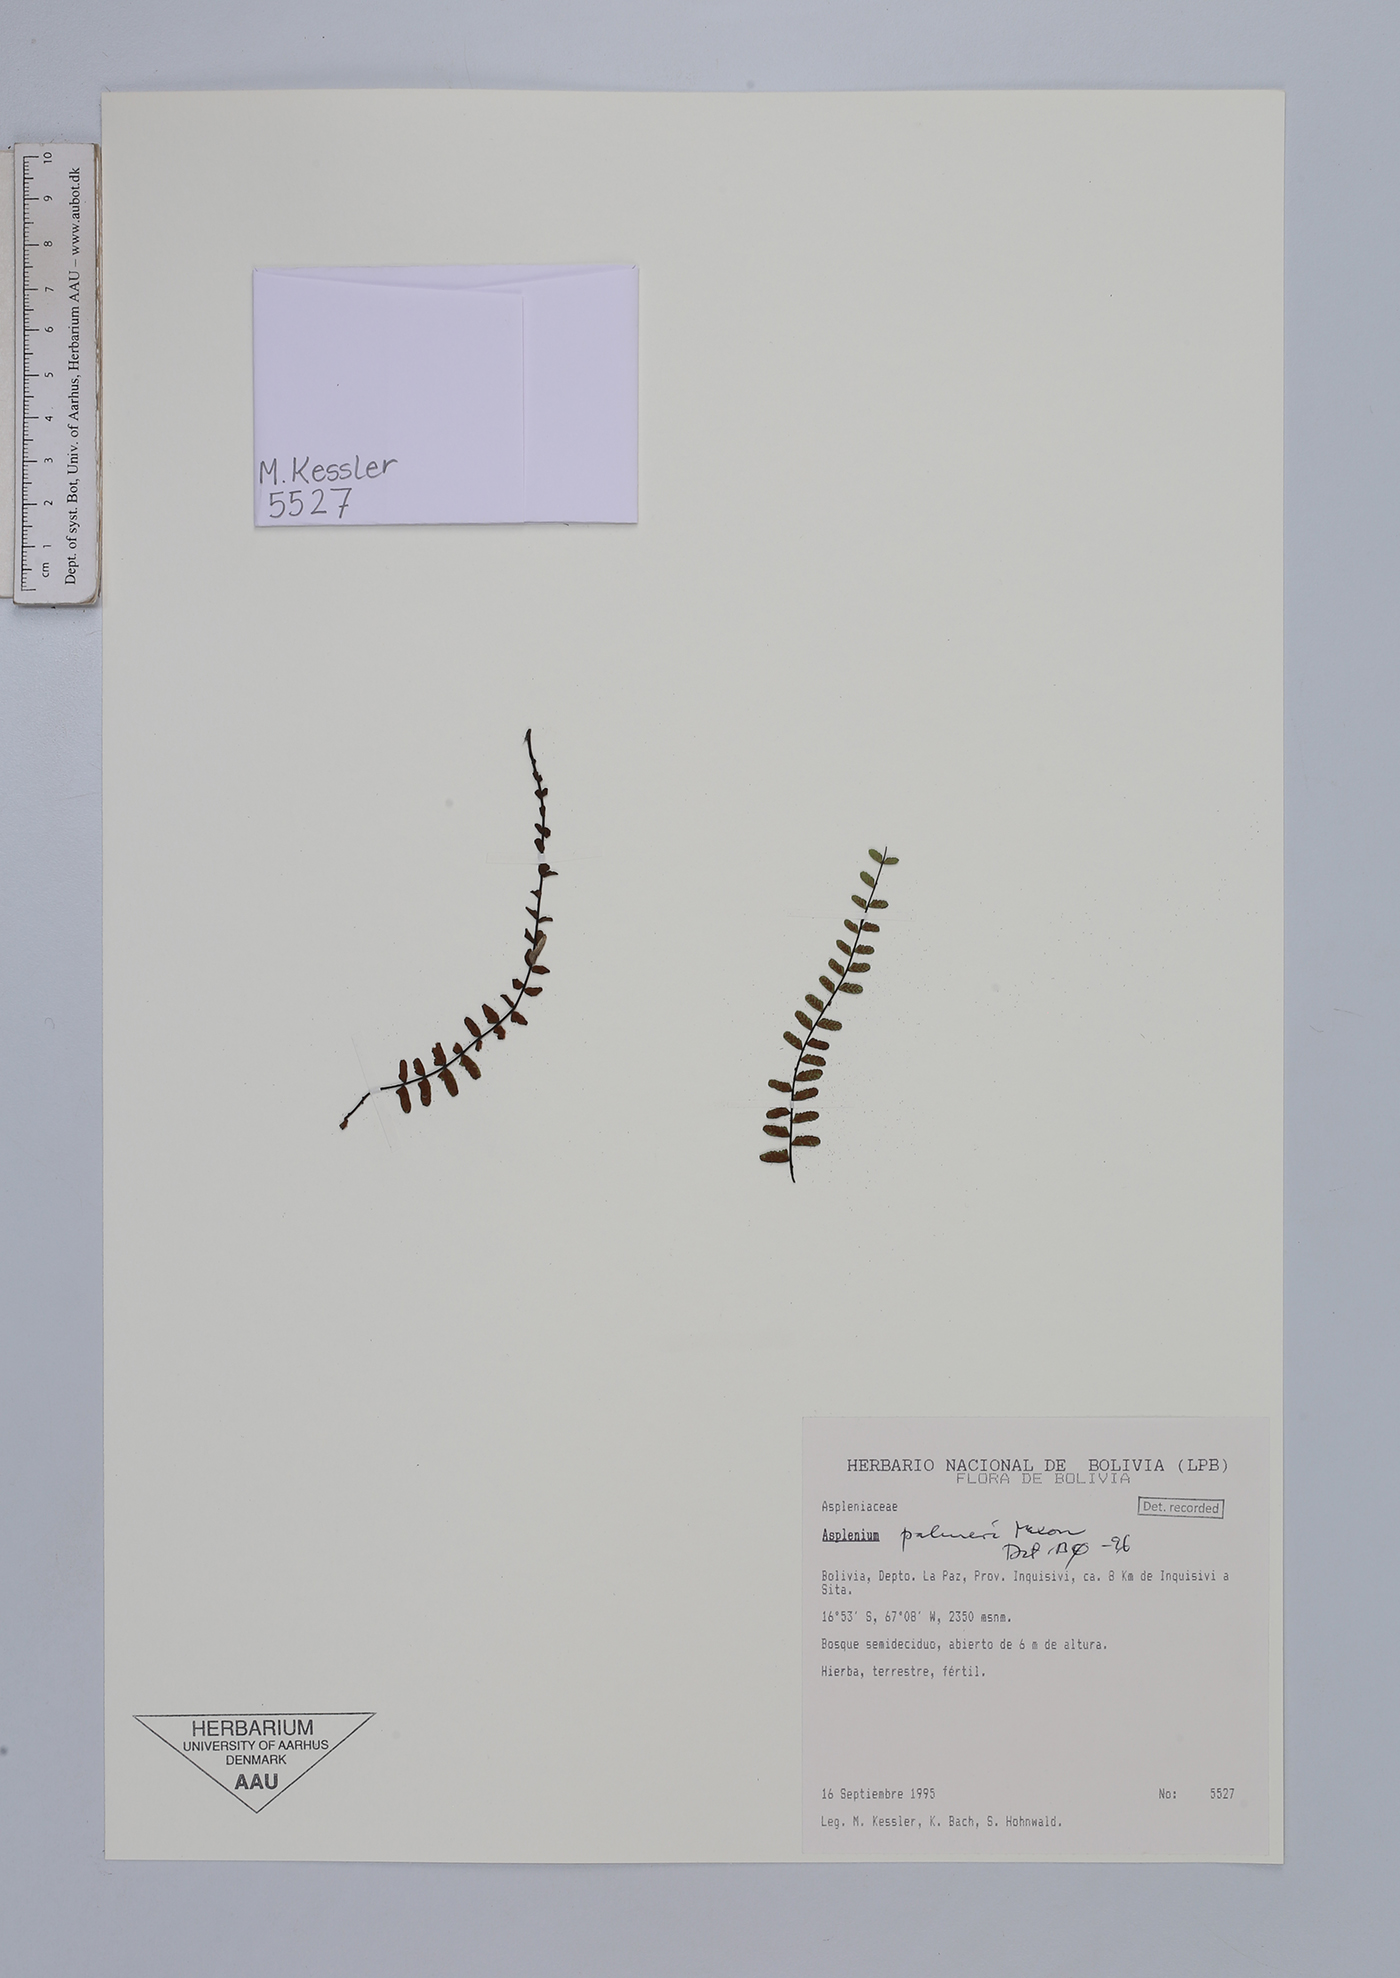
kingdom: Plantae
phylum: Tracheophyta
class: Polypodiopsida
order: Polypodiales
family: Aspleniaceae
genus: Asplenium
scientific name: Asplenium palmeri
